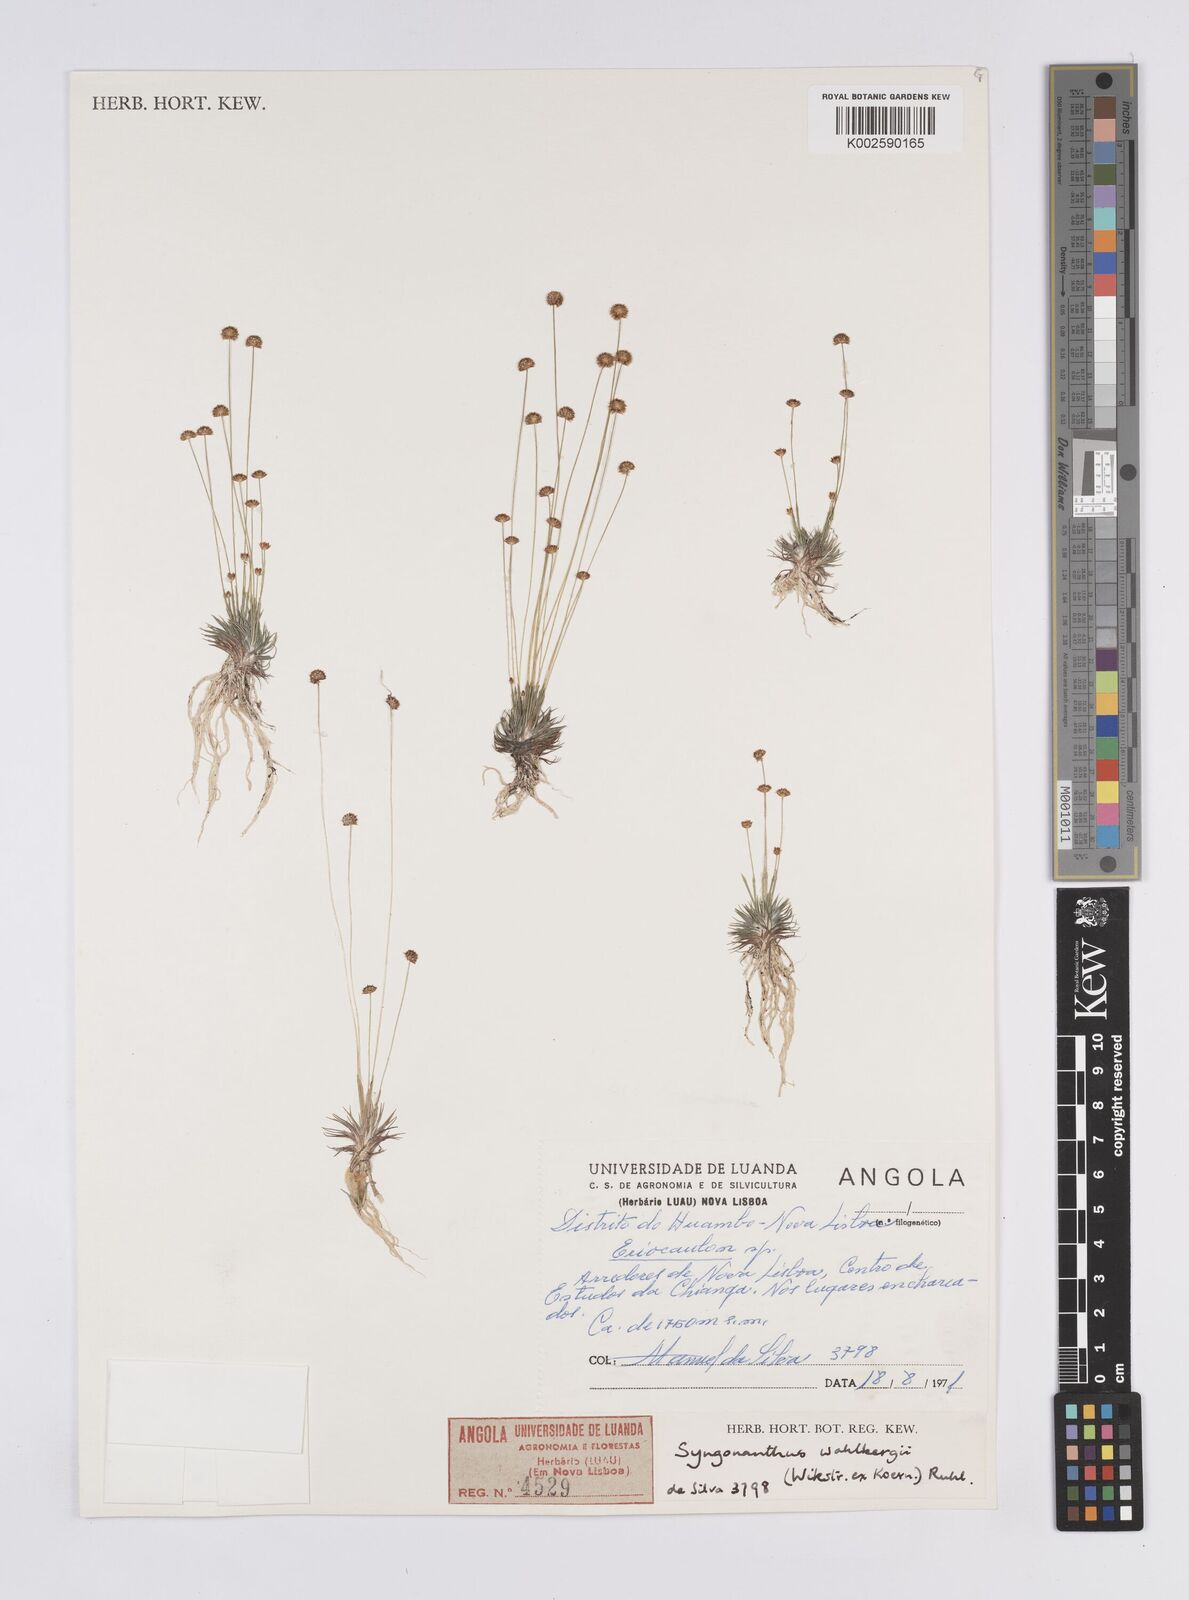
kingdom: Plantae
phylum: Tracheophyta
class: Liliopsida
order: Poales
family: Eriocaulaceae
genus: Syngonanthus
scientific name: Syngonanthus wahlbergii
